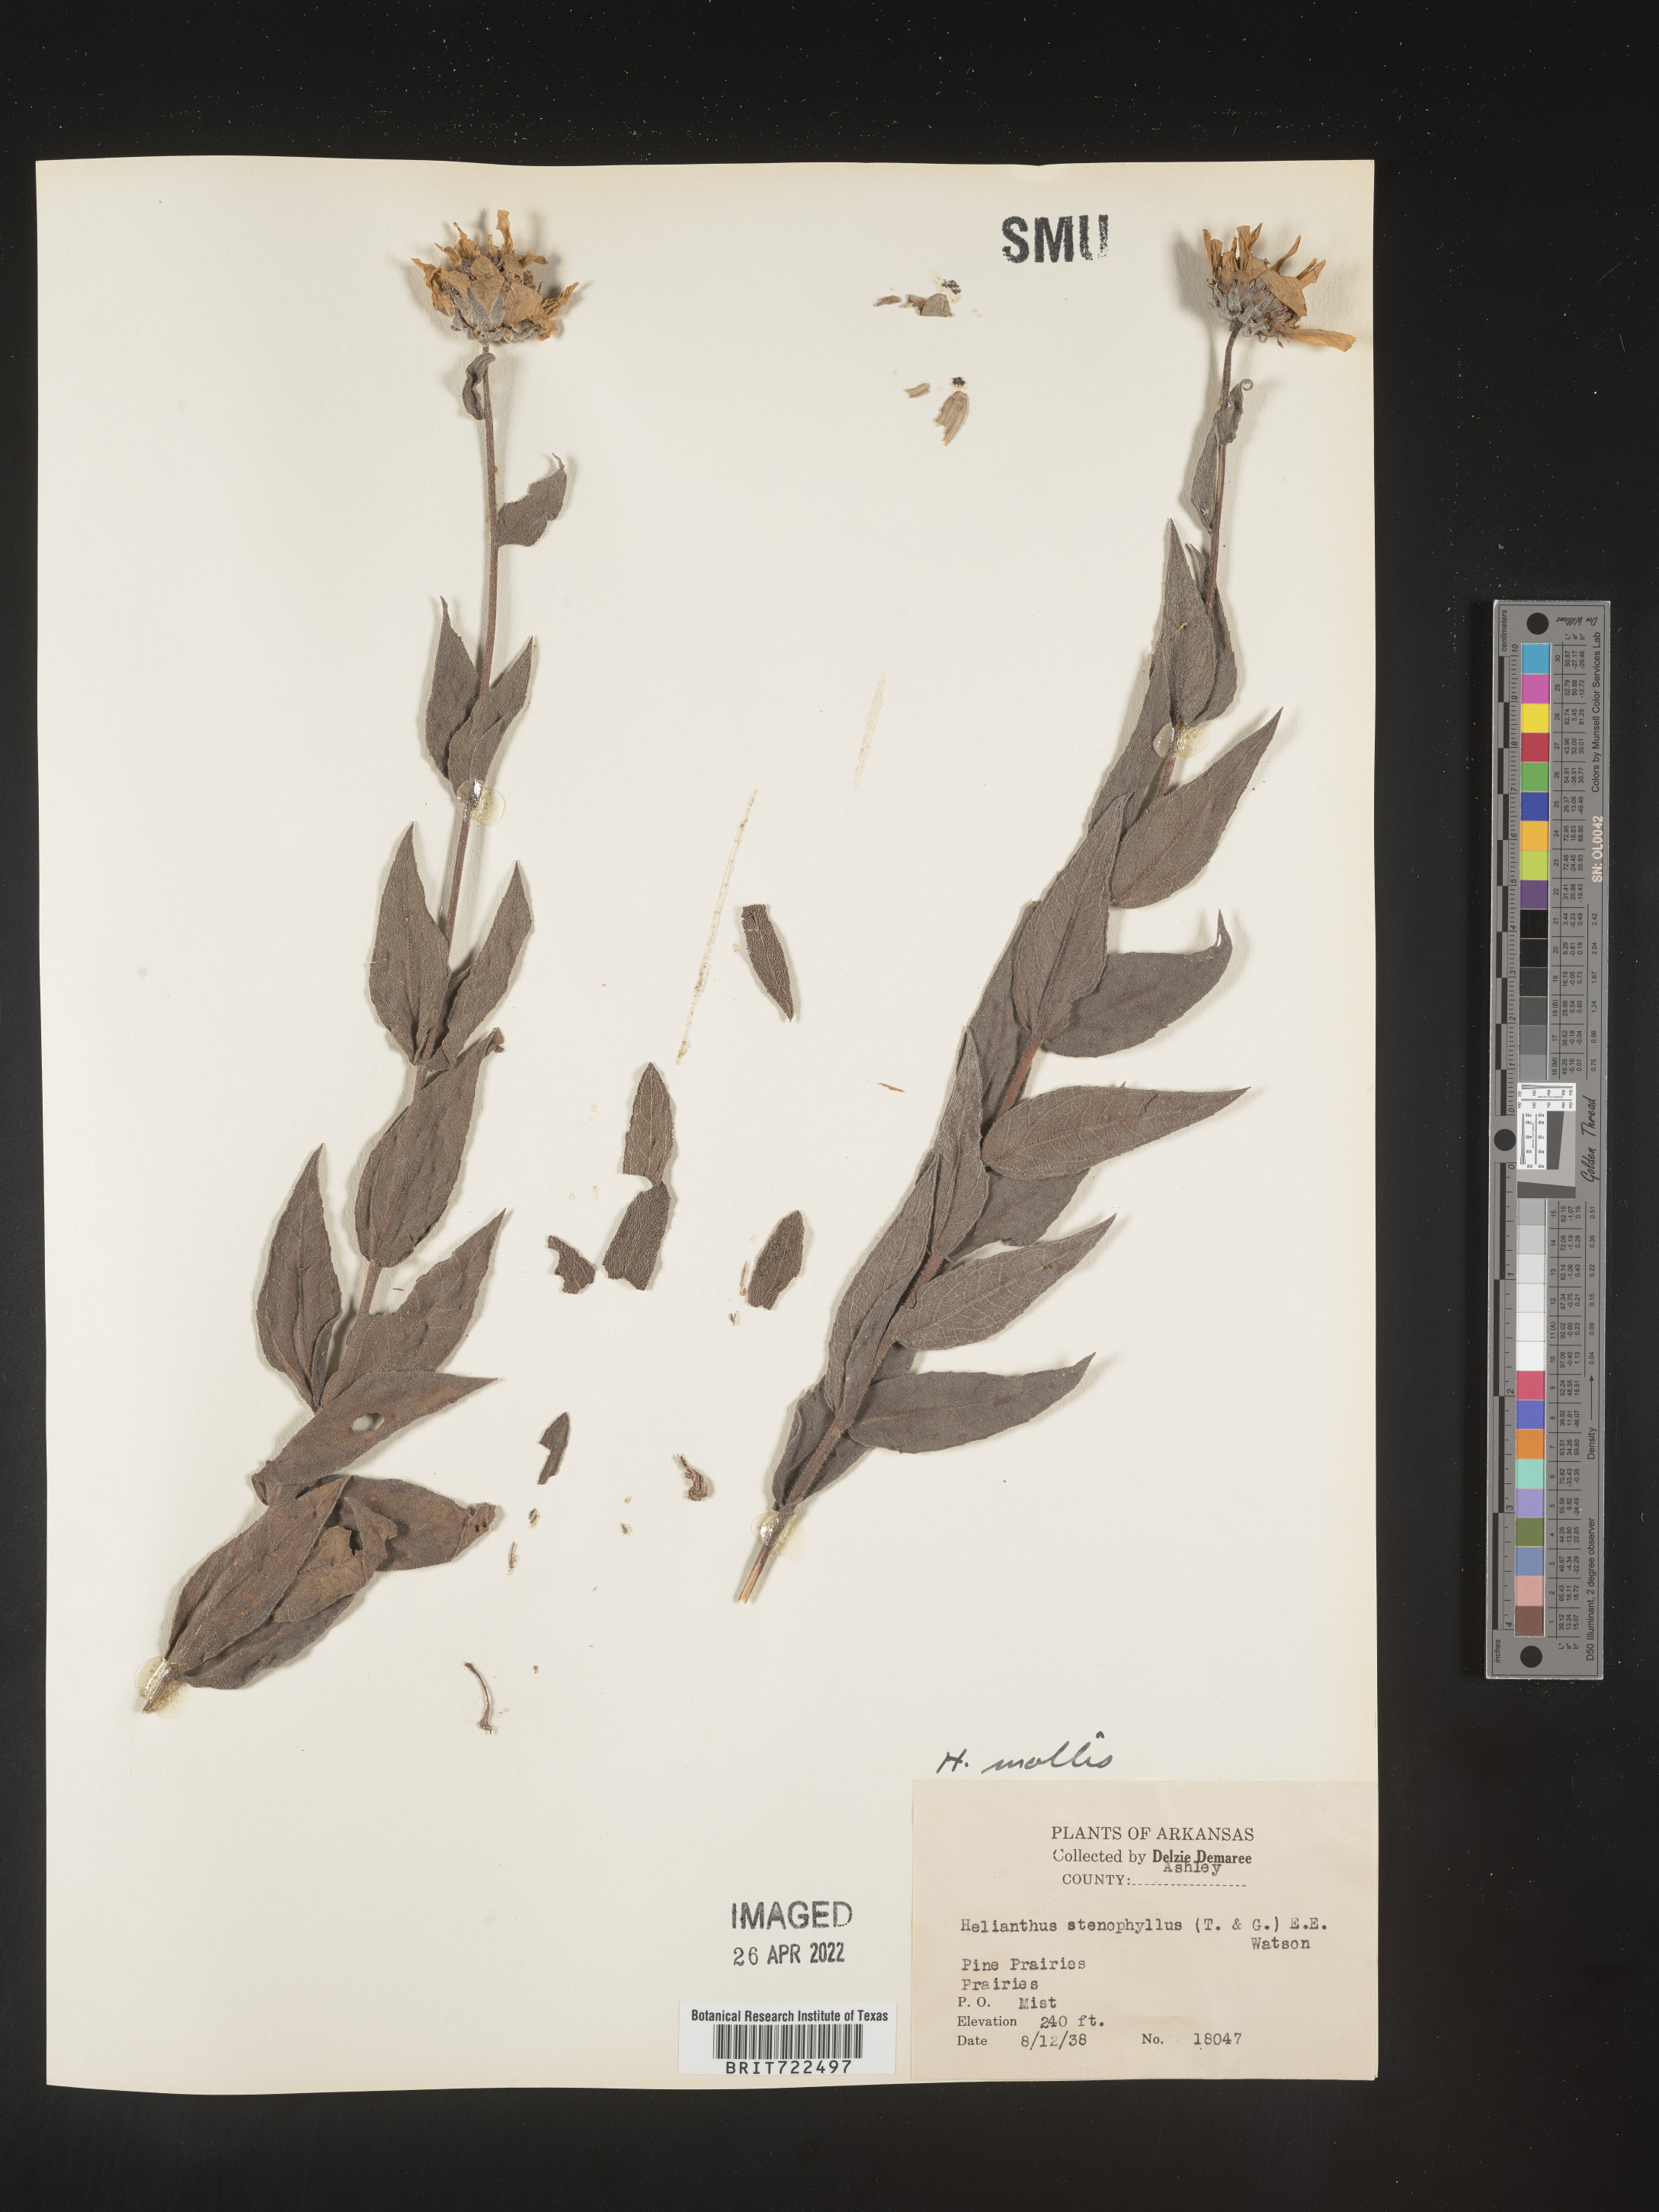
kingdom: Plantae
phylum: Tracheophyta
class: Magnoliopsida
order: Asterales
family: Asteraceae
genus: Helianthus
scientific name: Helianthus mollis
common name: Ashy sunflower
